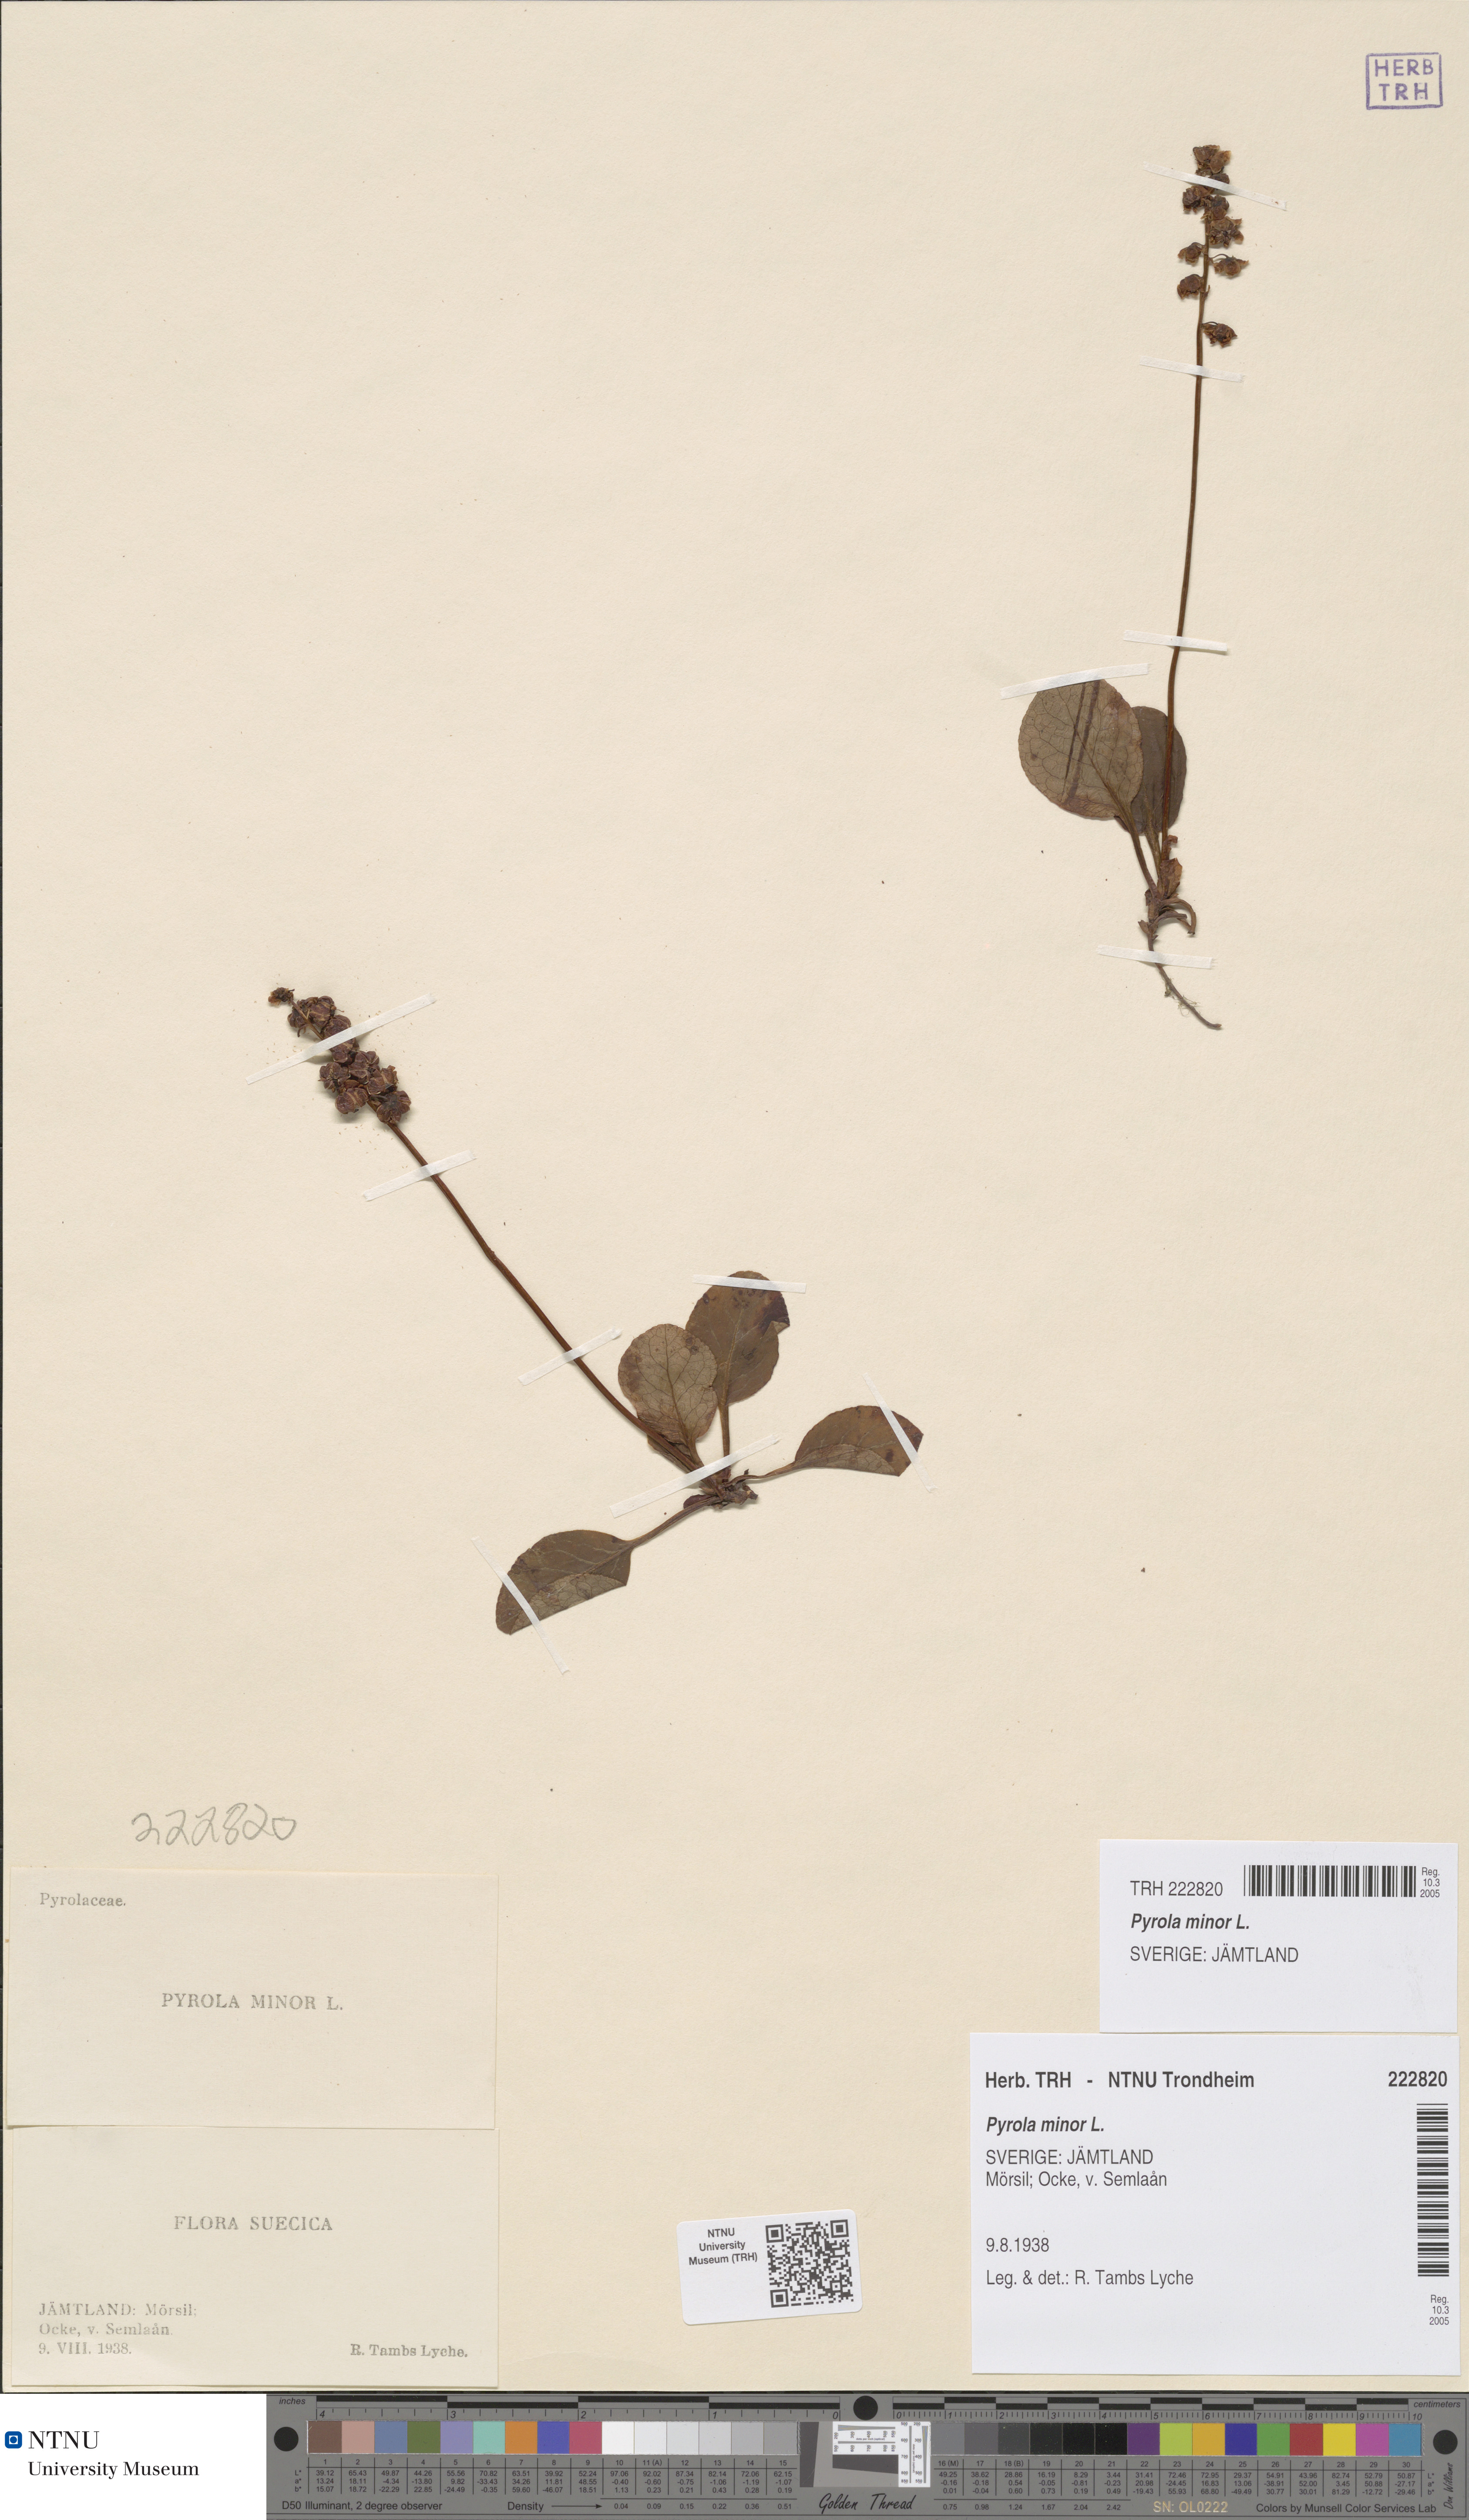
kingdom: Plantae
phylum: Tracheophyta
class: Magnoliopsida
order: Ericales
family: Ericaceae
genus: Pyrola
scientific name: Pyrola minor
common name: Common wintergreen
